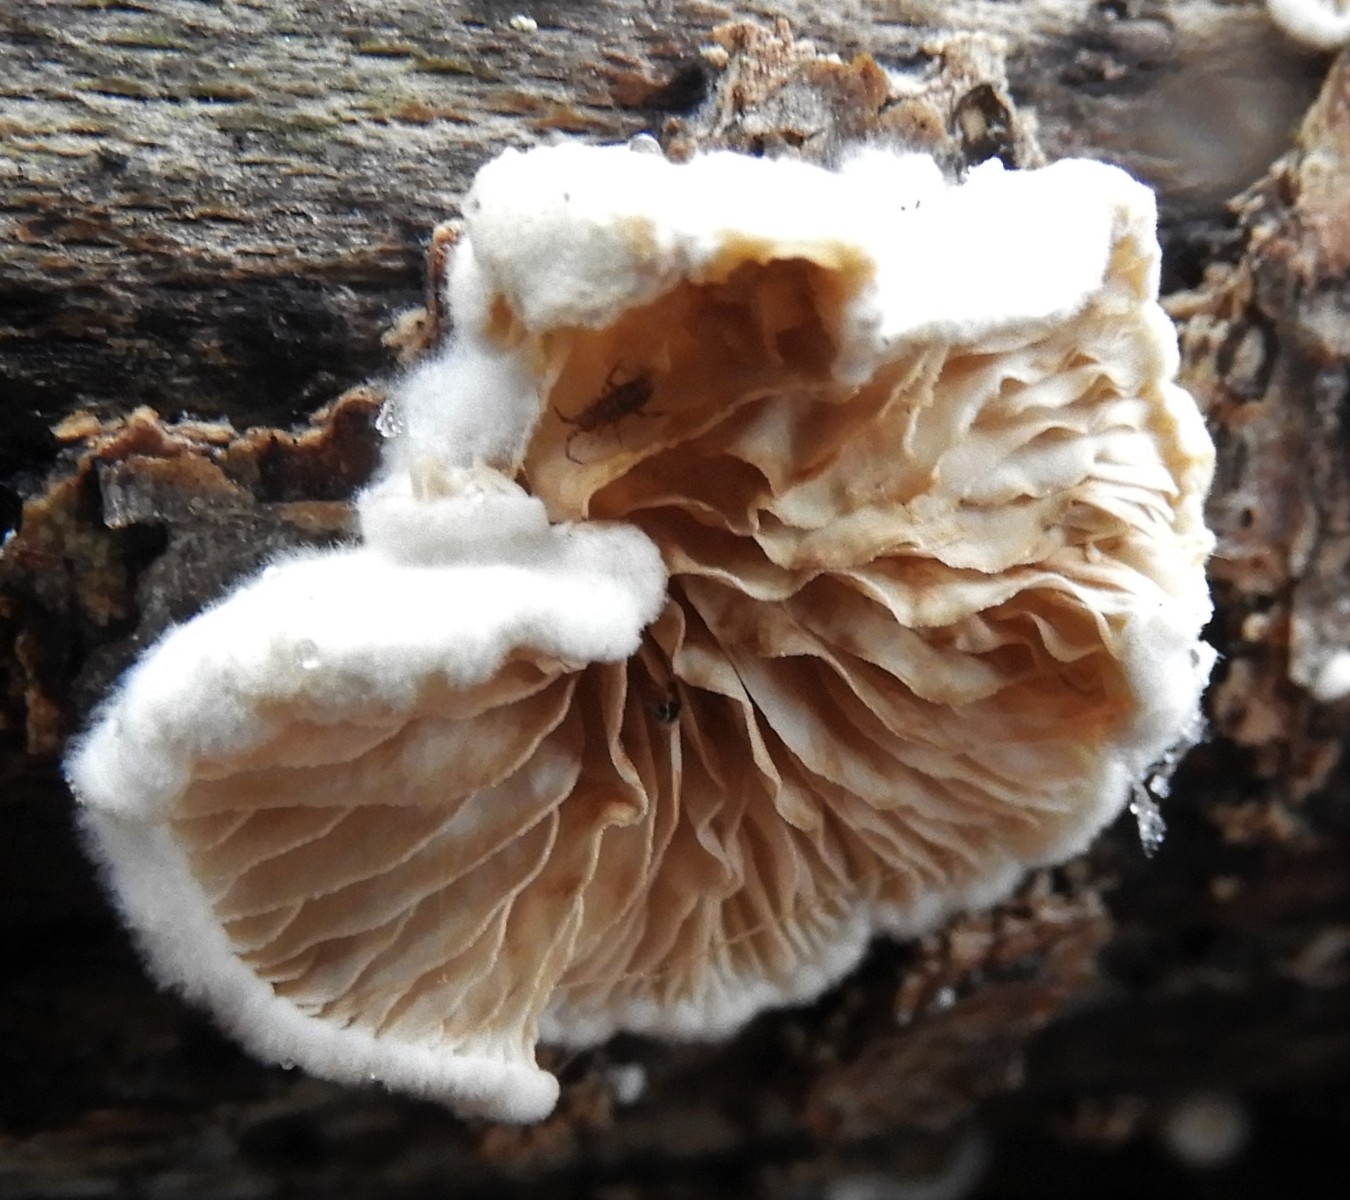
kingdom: Fungi
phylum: Basidiomycota
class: Agaricomycetes
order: Agaricales
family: Crepidotaceae
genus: Crepidotus
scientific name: Crepidotus
